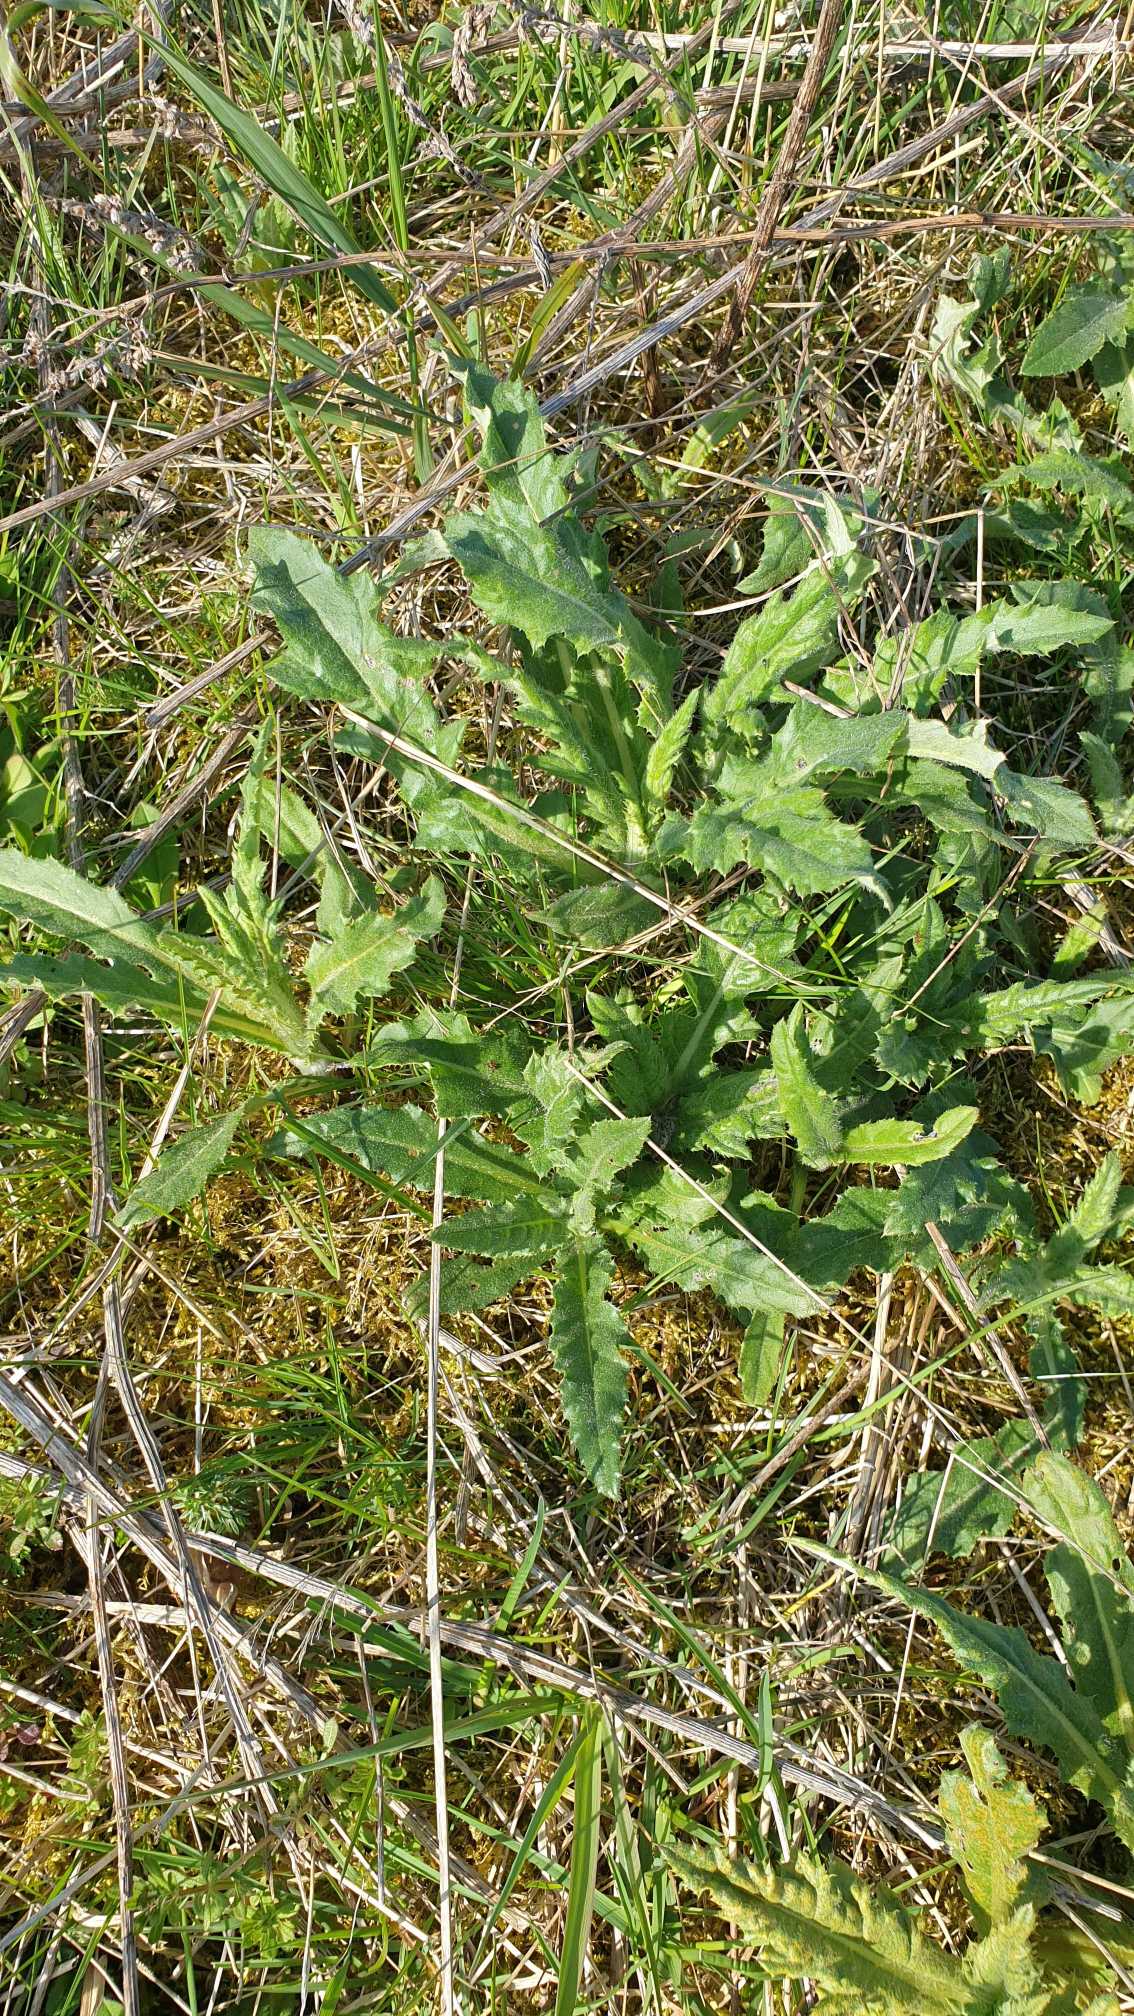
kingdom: Plantae
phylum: Tracheophyta
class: Magnoliopsida
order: Asterales
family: Asteraceae
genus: Cirsium
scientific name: Cirsium arvense
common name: Ager-tidsel
